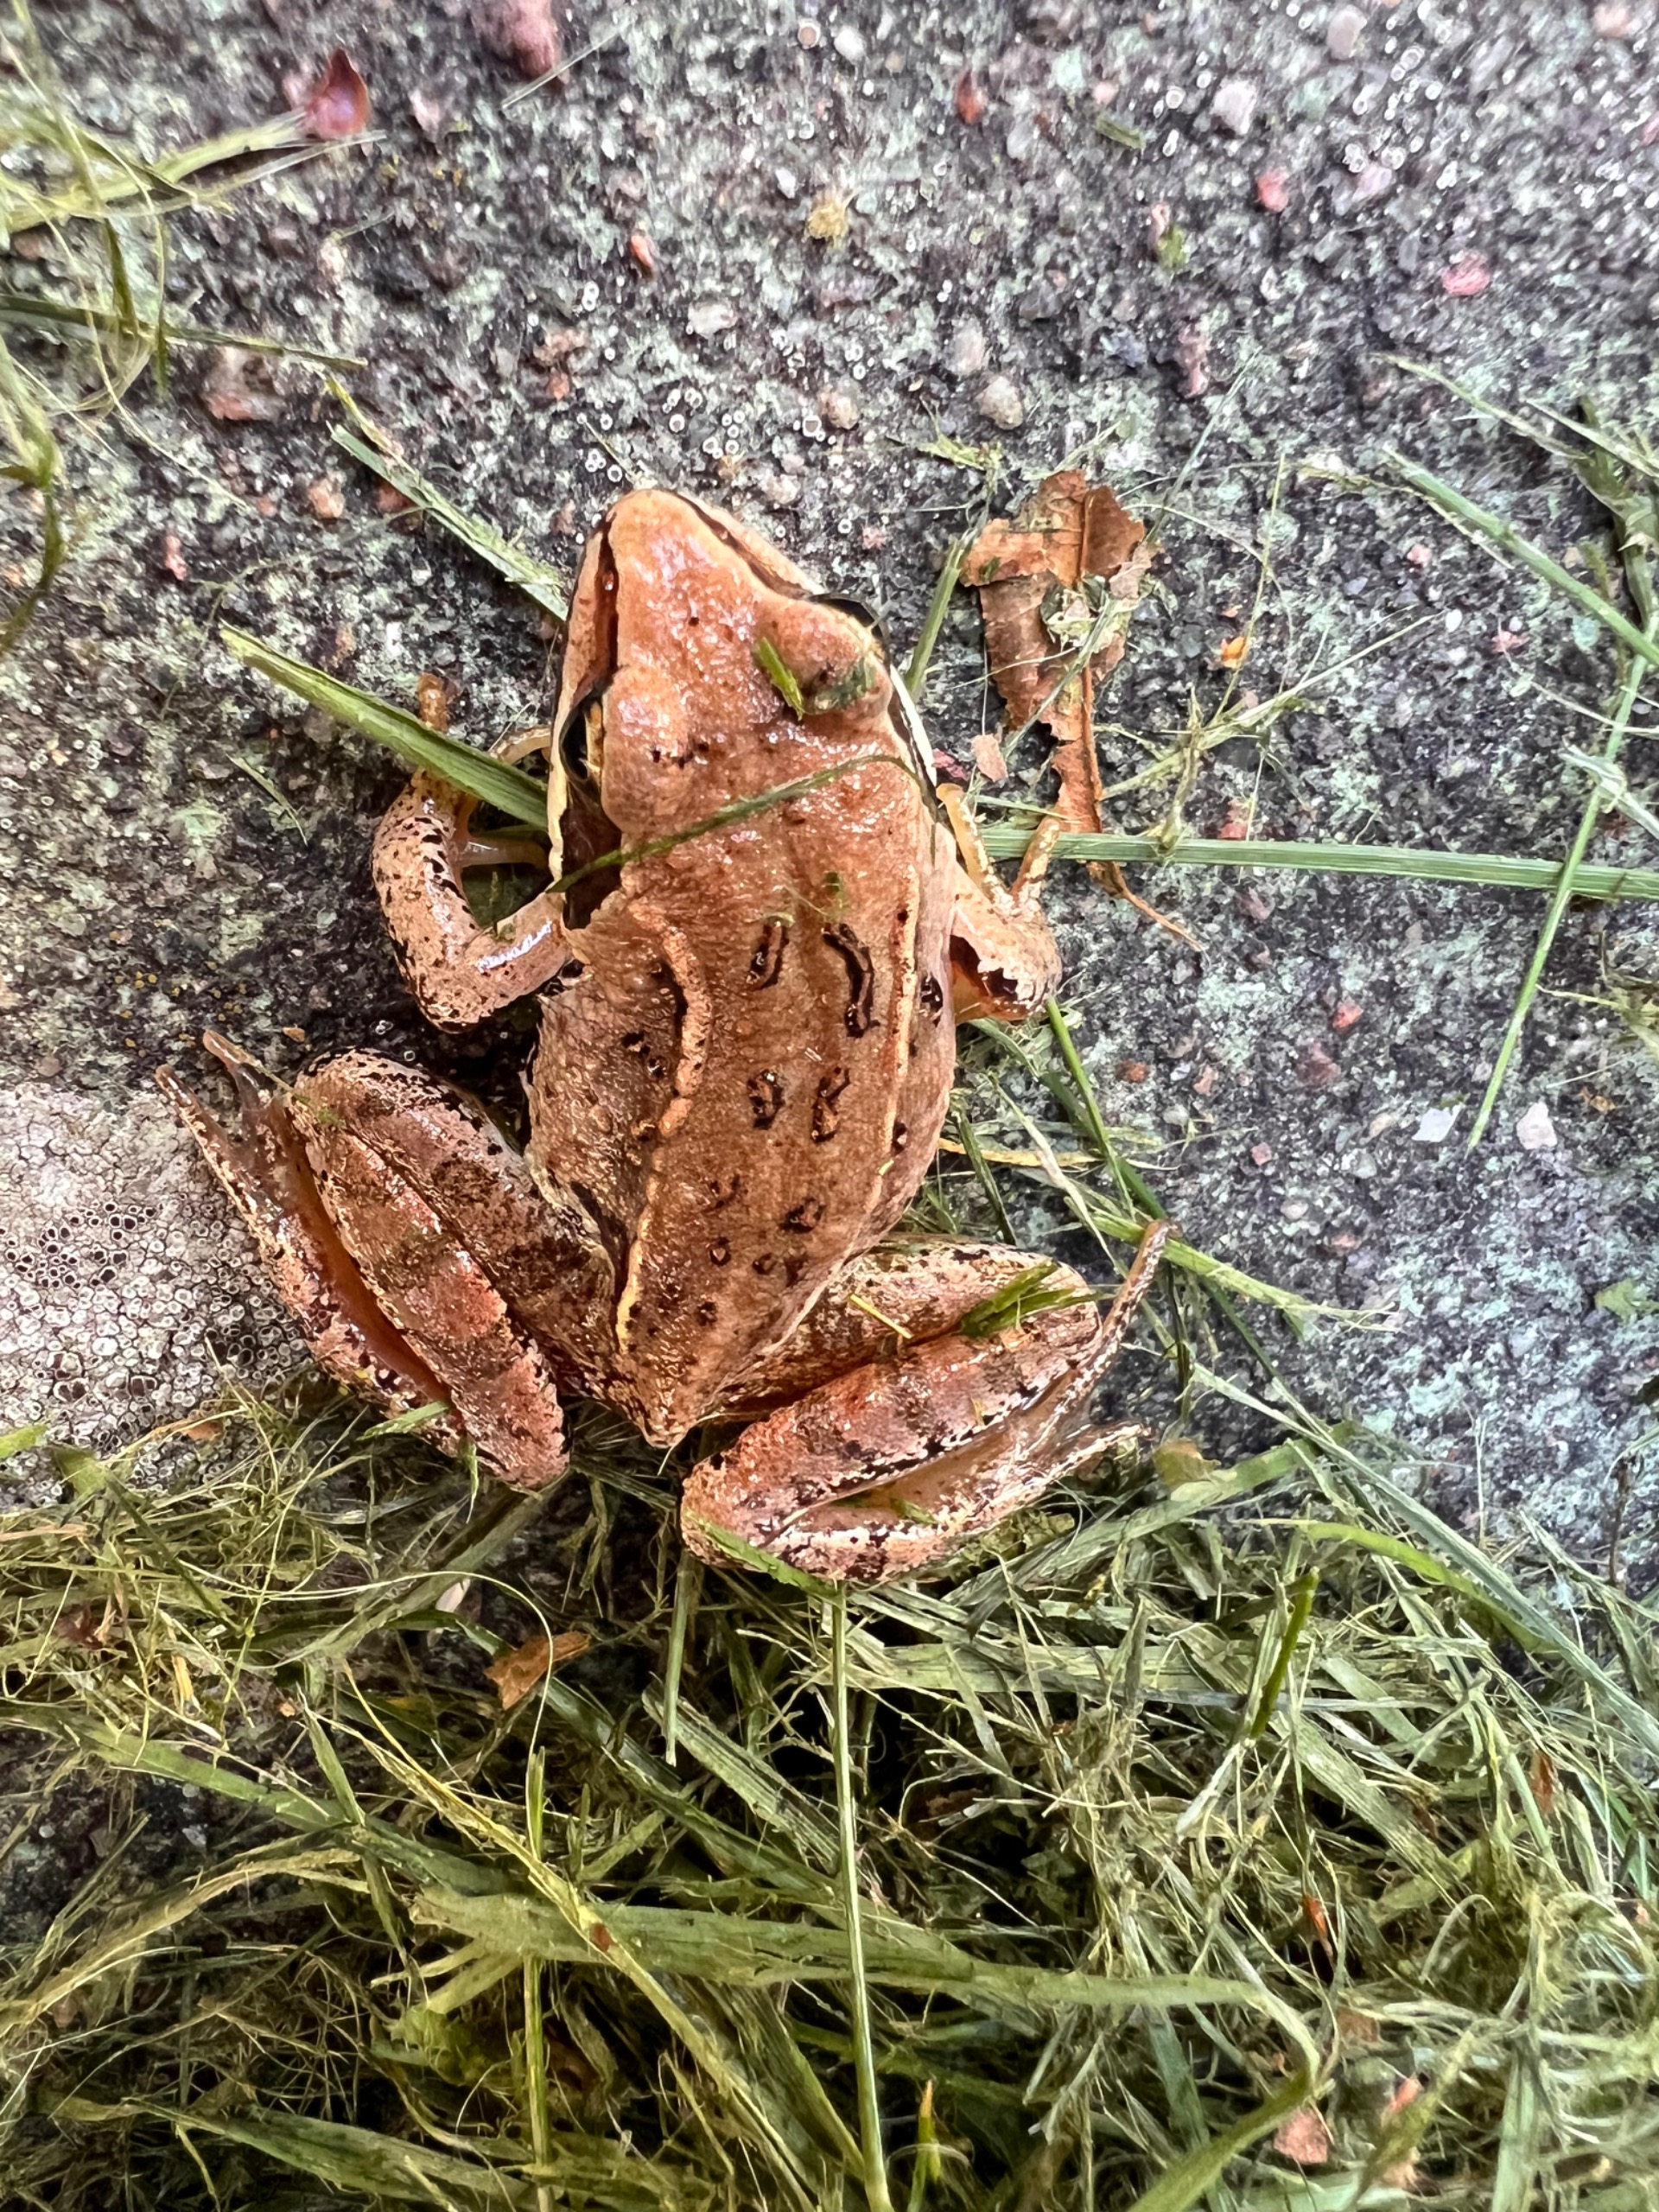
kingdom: Animalia
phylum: Chordata
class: Amphibia
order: Anura
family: Ranidae
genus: Rana
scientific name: Rana arvalis
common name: Spidssnudet frø
